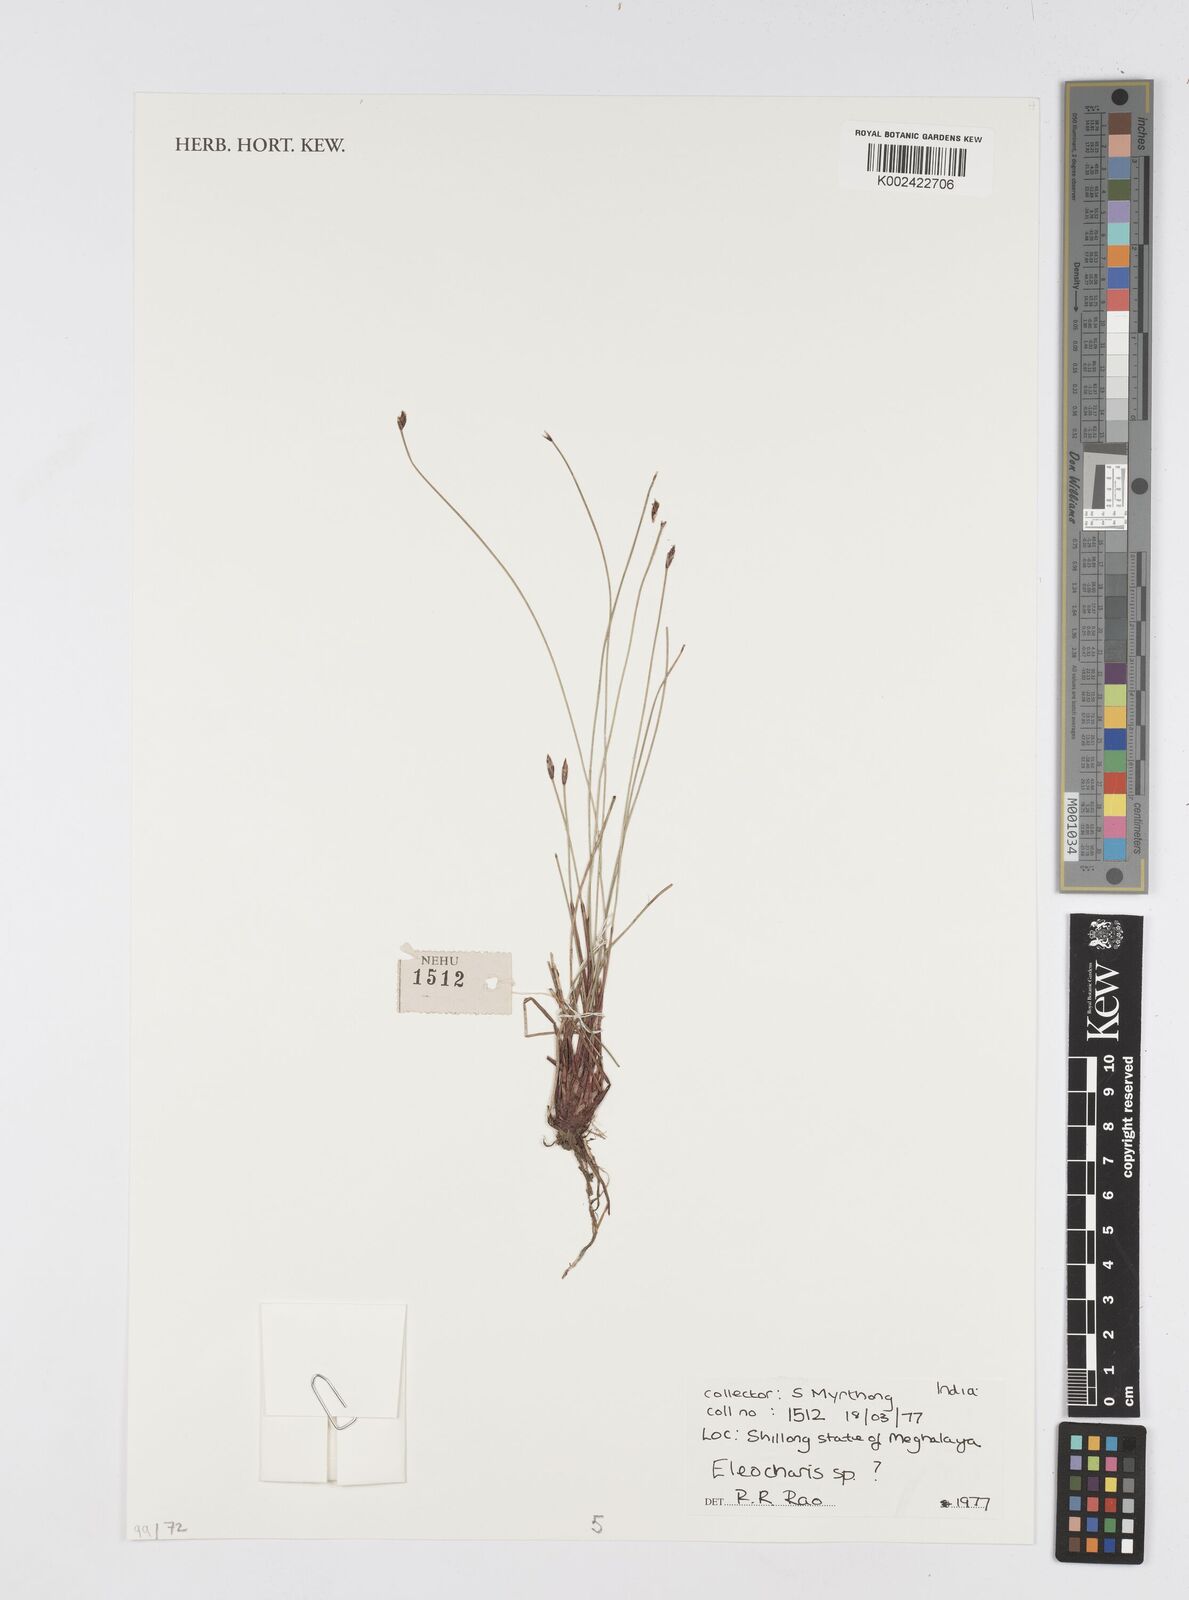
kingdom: Plantae
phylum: Tracheophyta
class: Liliopsida
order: Poales
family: Cyperaceae
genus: Eleocharis
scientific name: Eleocharis
